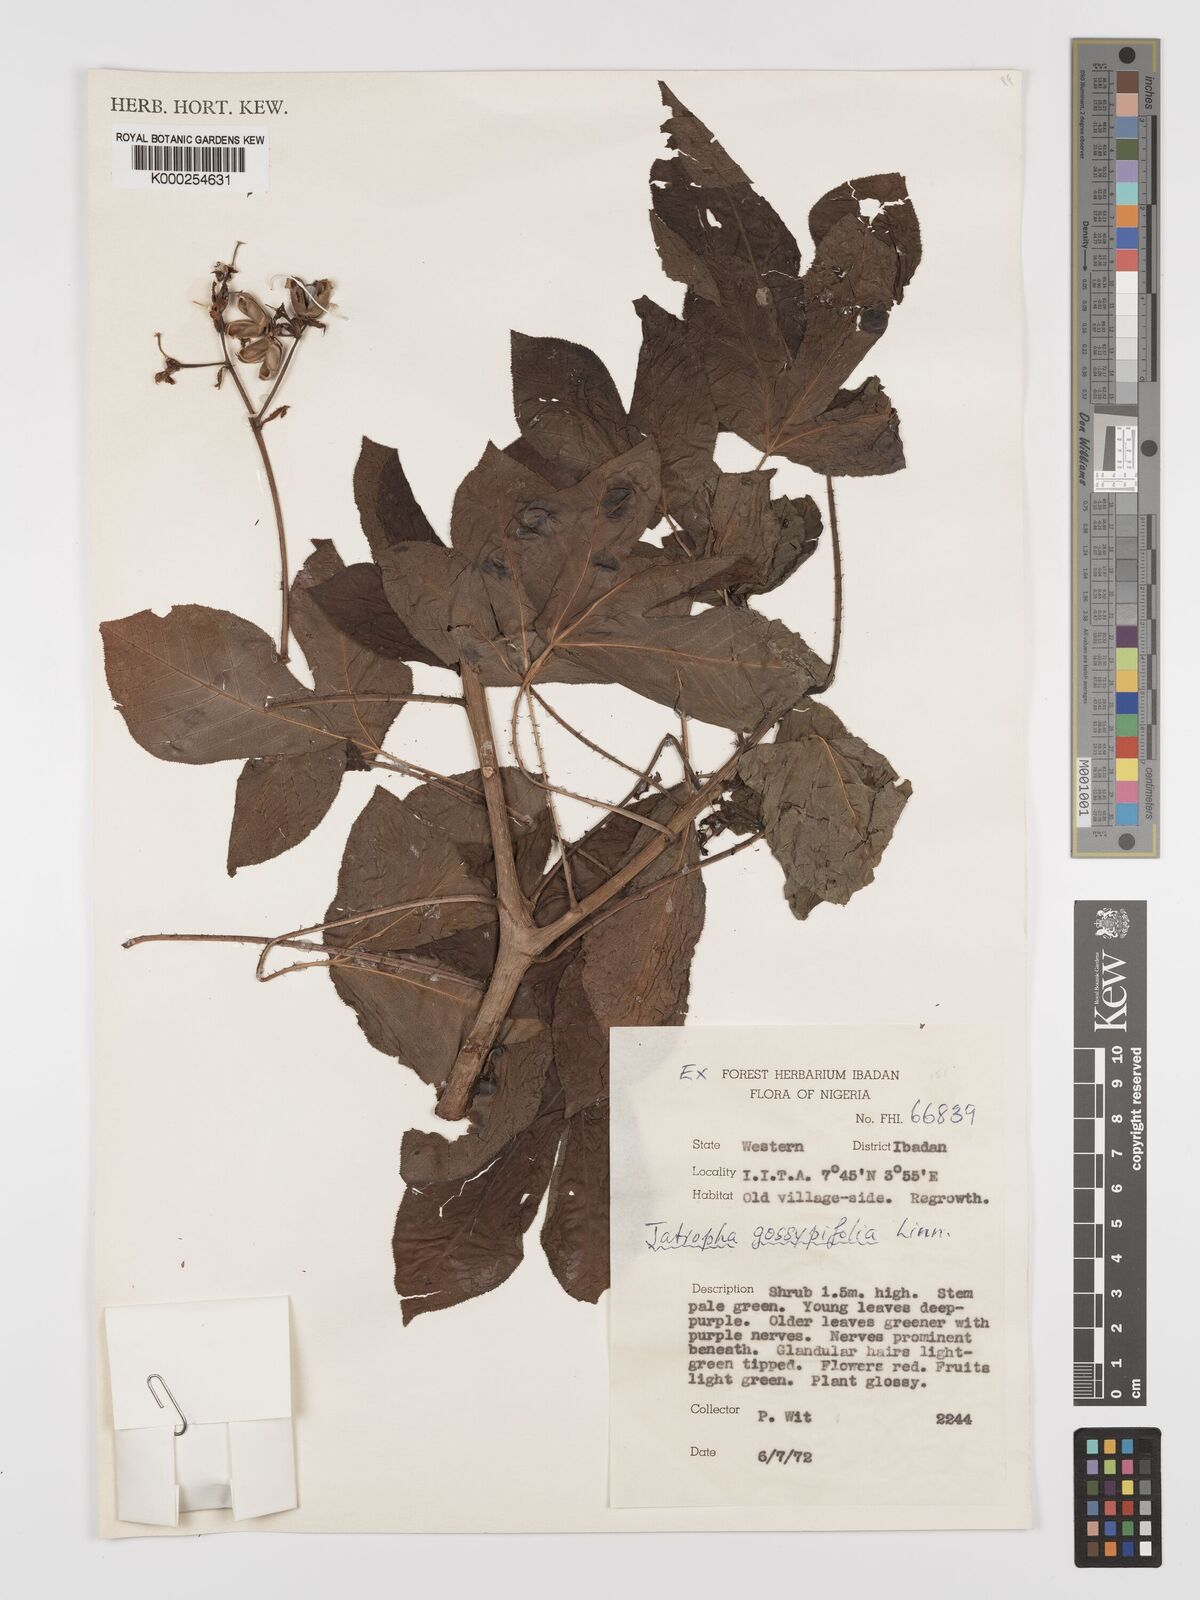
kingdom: Plantae
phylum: Tracheophyta
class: Magnoliopsida
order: Malpighiales
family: Euphorbiaceae
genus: Jatropha
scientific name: Jatropha gossypiifolia
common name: Bellyache bush
